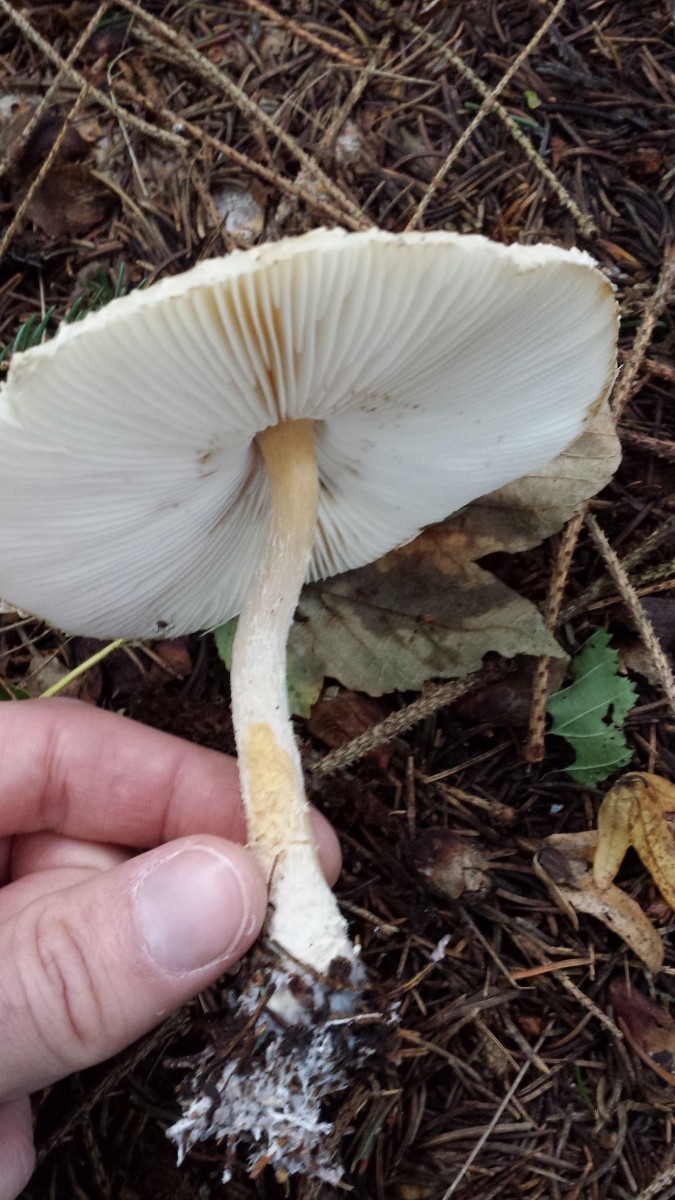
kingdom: Fungi
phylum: Basidiomycota
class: Agaricomycetes
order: Agaricales
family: Agaricaceae
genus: Lepiota
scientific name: Lepiota
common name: parasolhat
